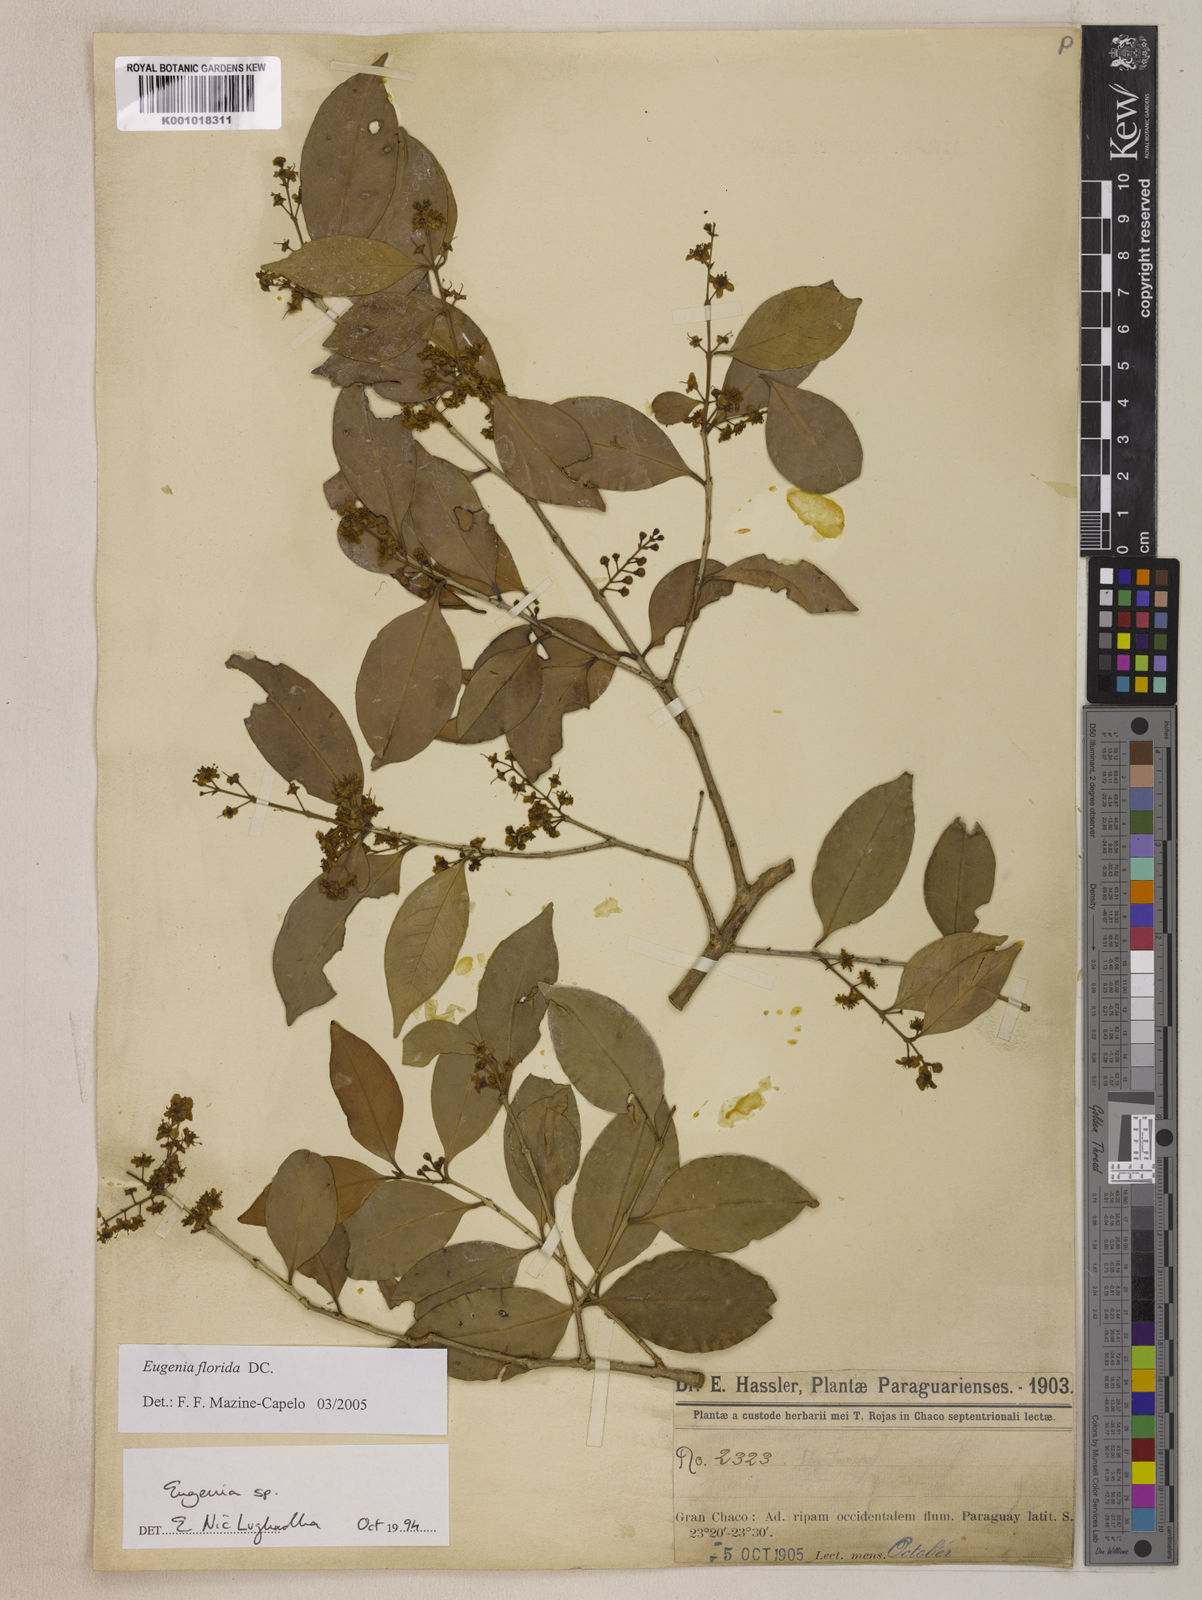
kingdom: Plantae
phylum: Tracheophyta
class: Magnoliopsida
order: Myrtales
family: Myrtaceae
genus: Eugenia
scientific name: Eugenia florida
